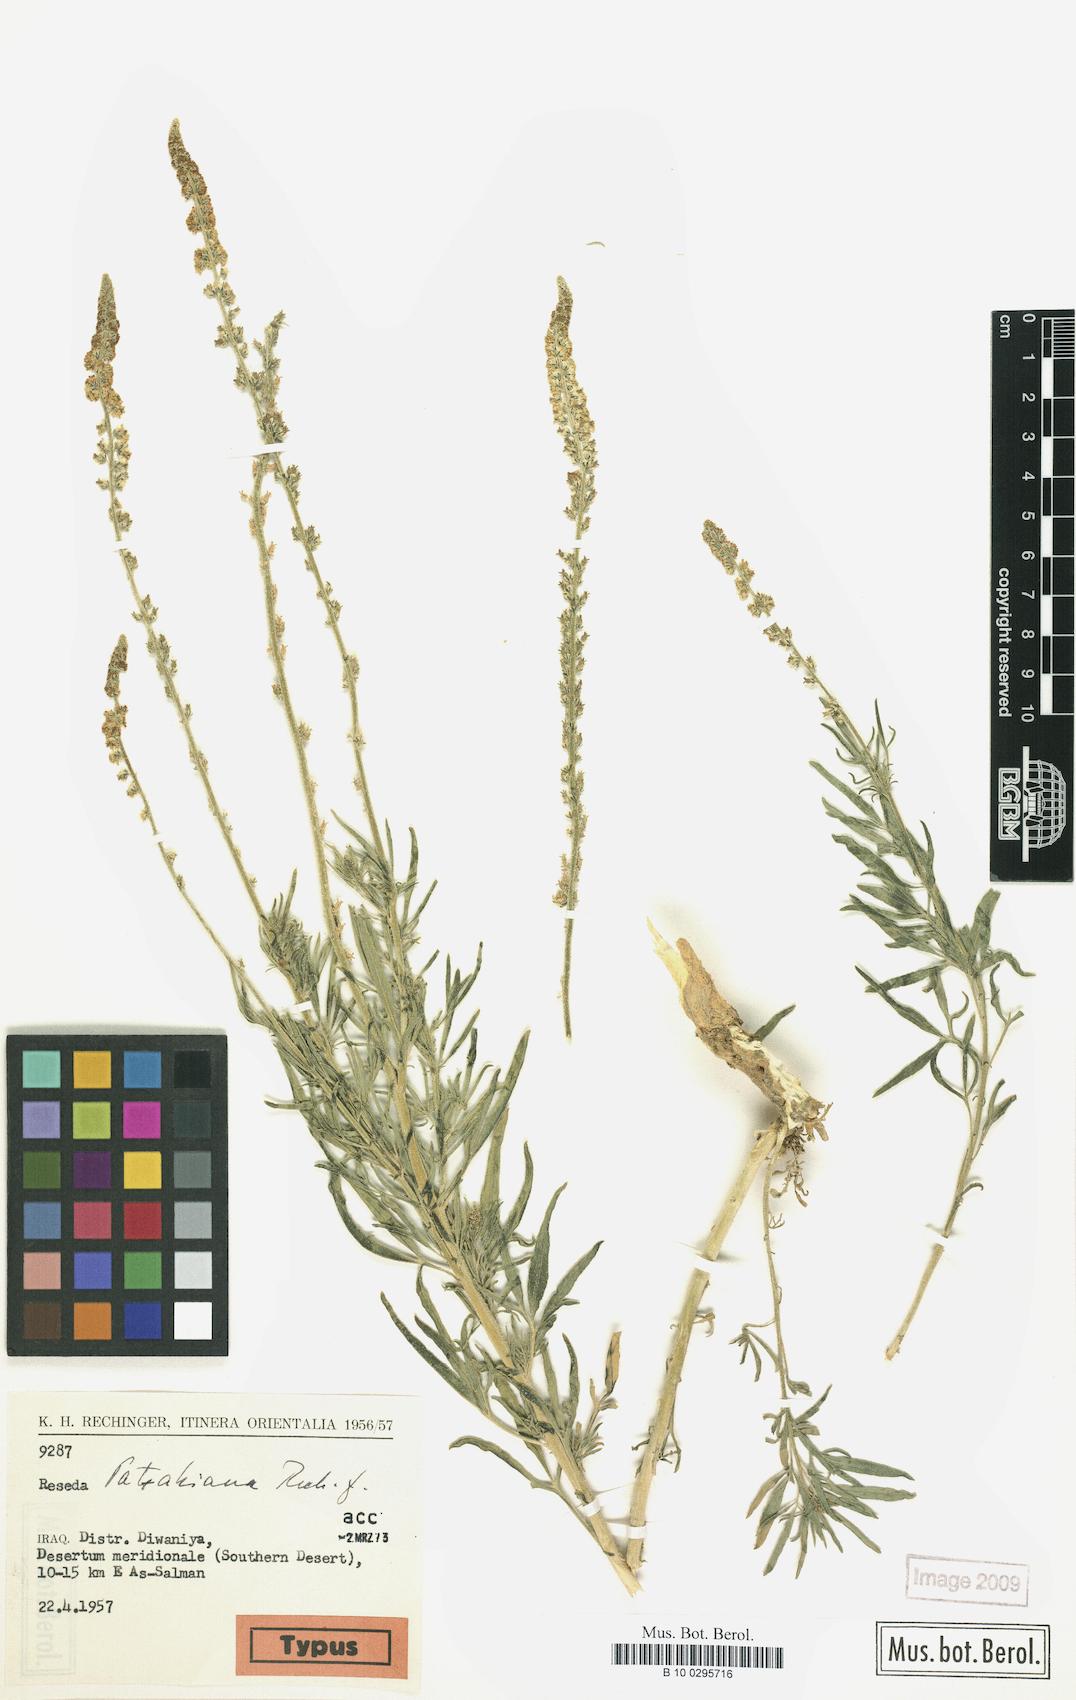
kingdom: Plantae
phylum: Tracheophyta
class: Magnoliopsida
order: Brassicales
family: Resedaceae
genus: Reseda
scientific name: Reseda muricata
